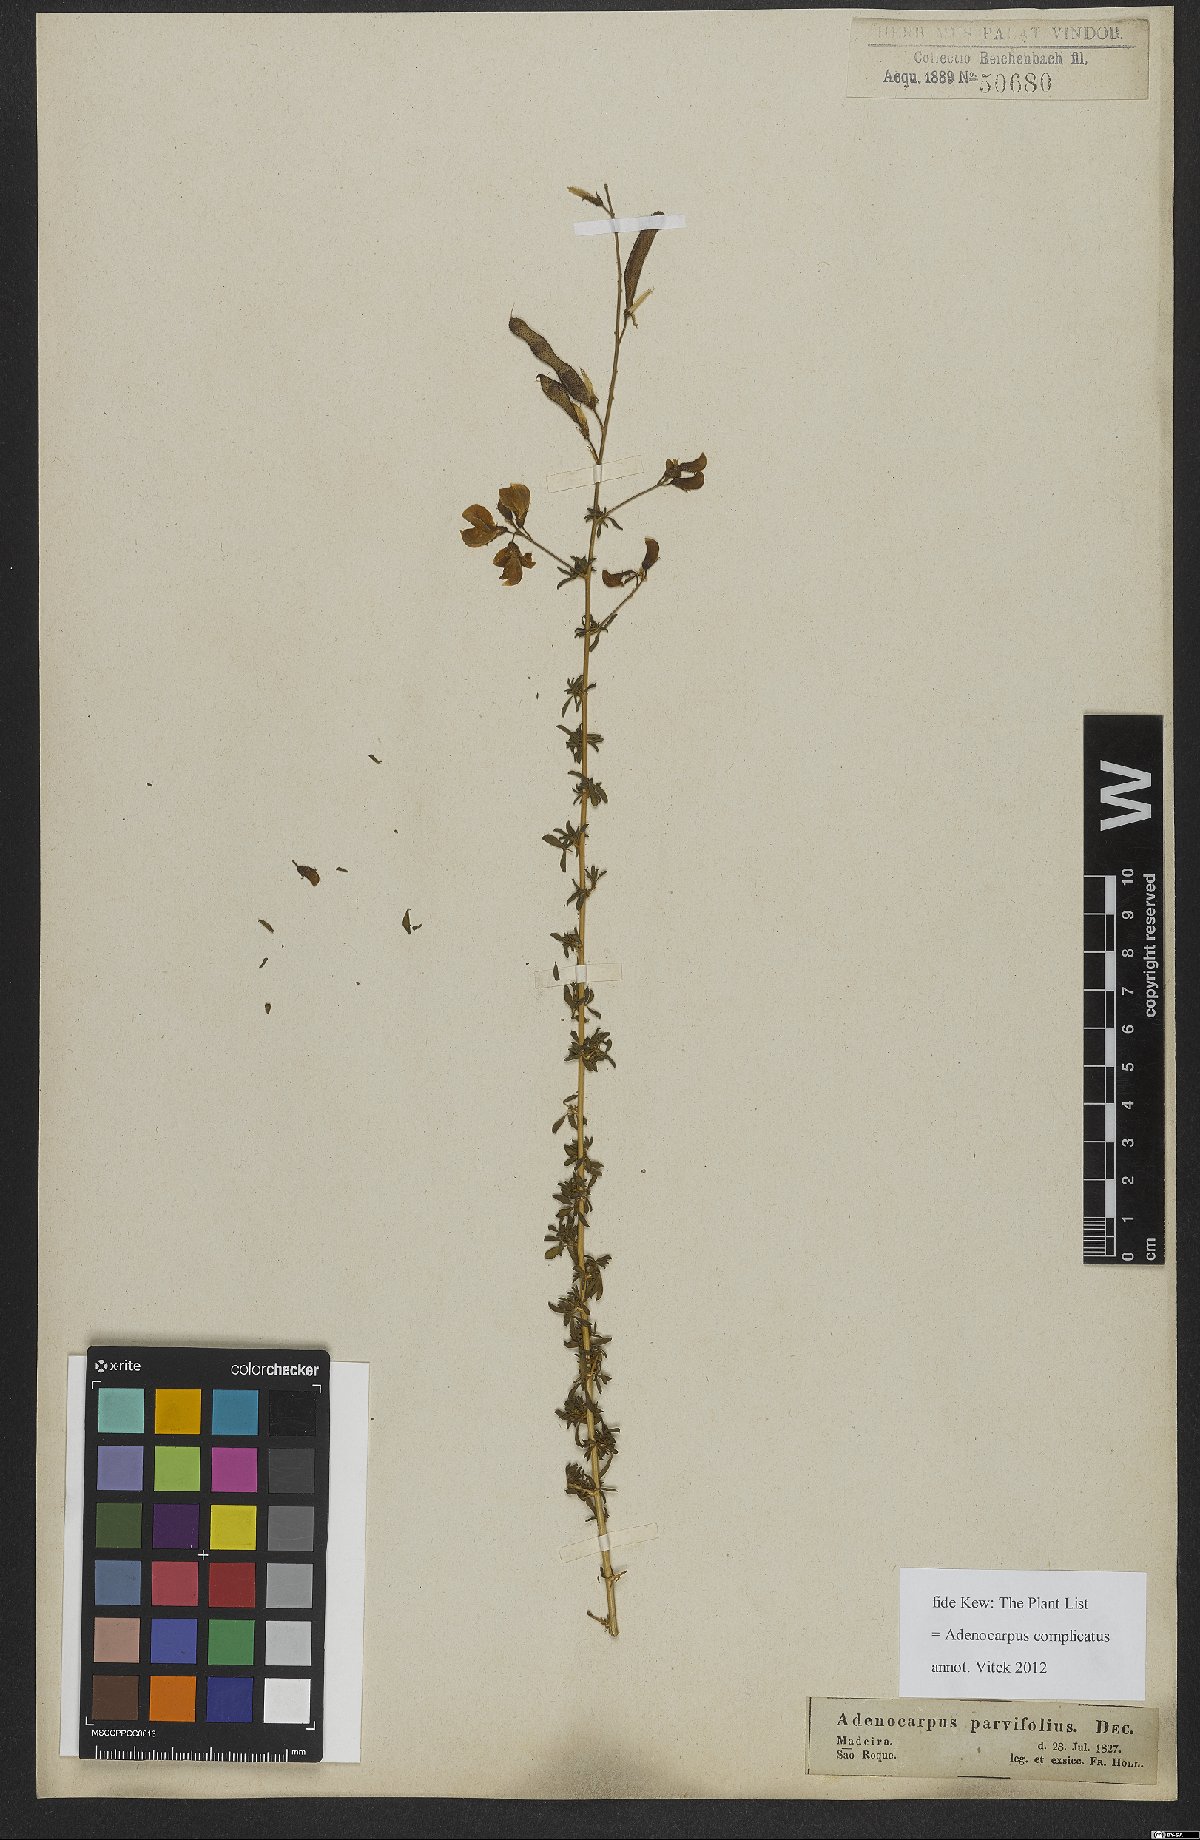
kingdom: Plantae
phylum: Tracheophyta
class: Magnoliopsida
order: Fabales
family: Fabaceae
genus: Adenocarpus
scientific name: Adenocarpus complicatus
